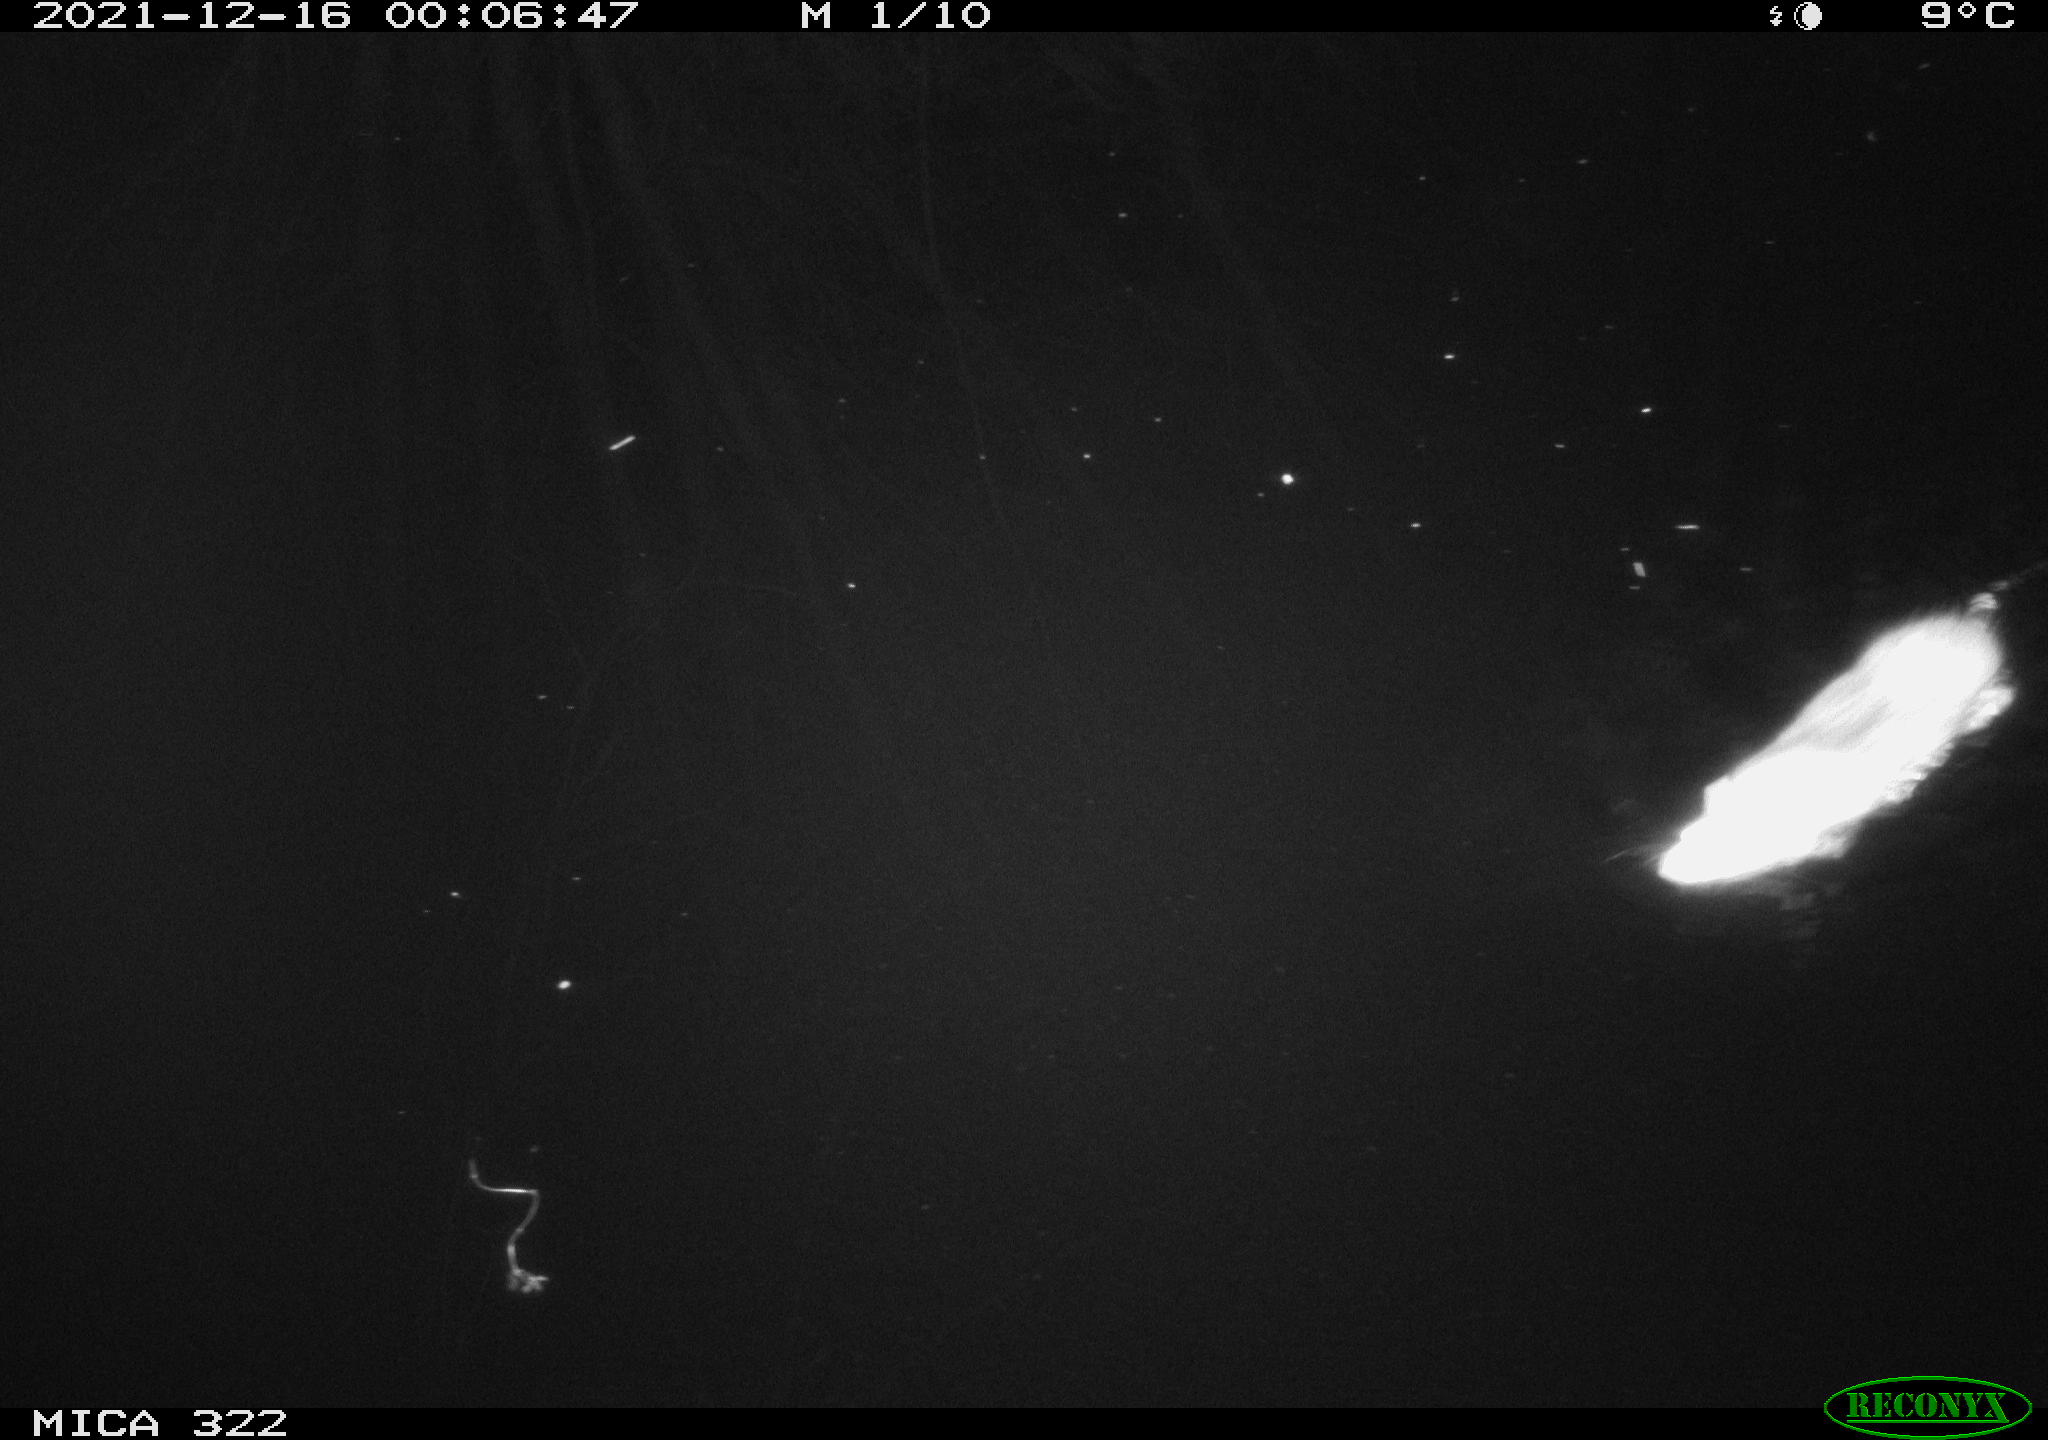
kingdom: Animalia
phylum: Chordata
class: Mammalia
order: Rodentia
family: Muridae
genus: Rattus
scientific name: Rattus norvegicus
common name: Brown rat
